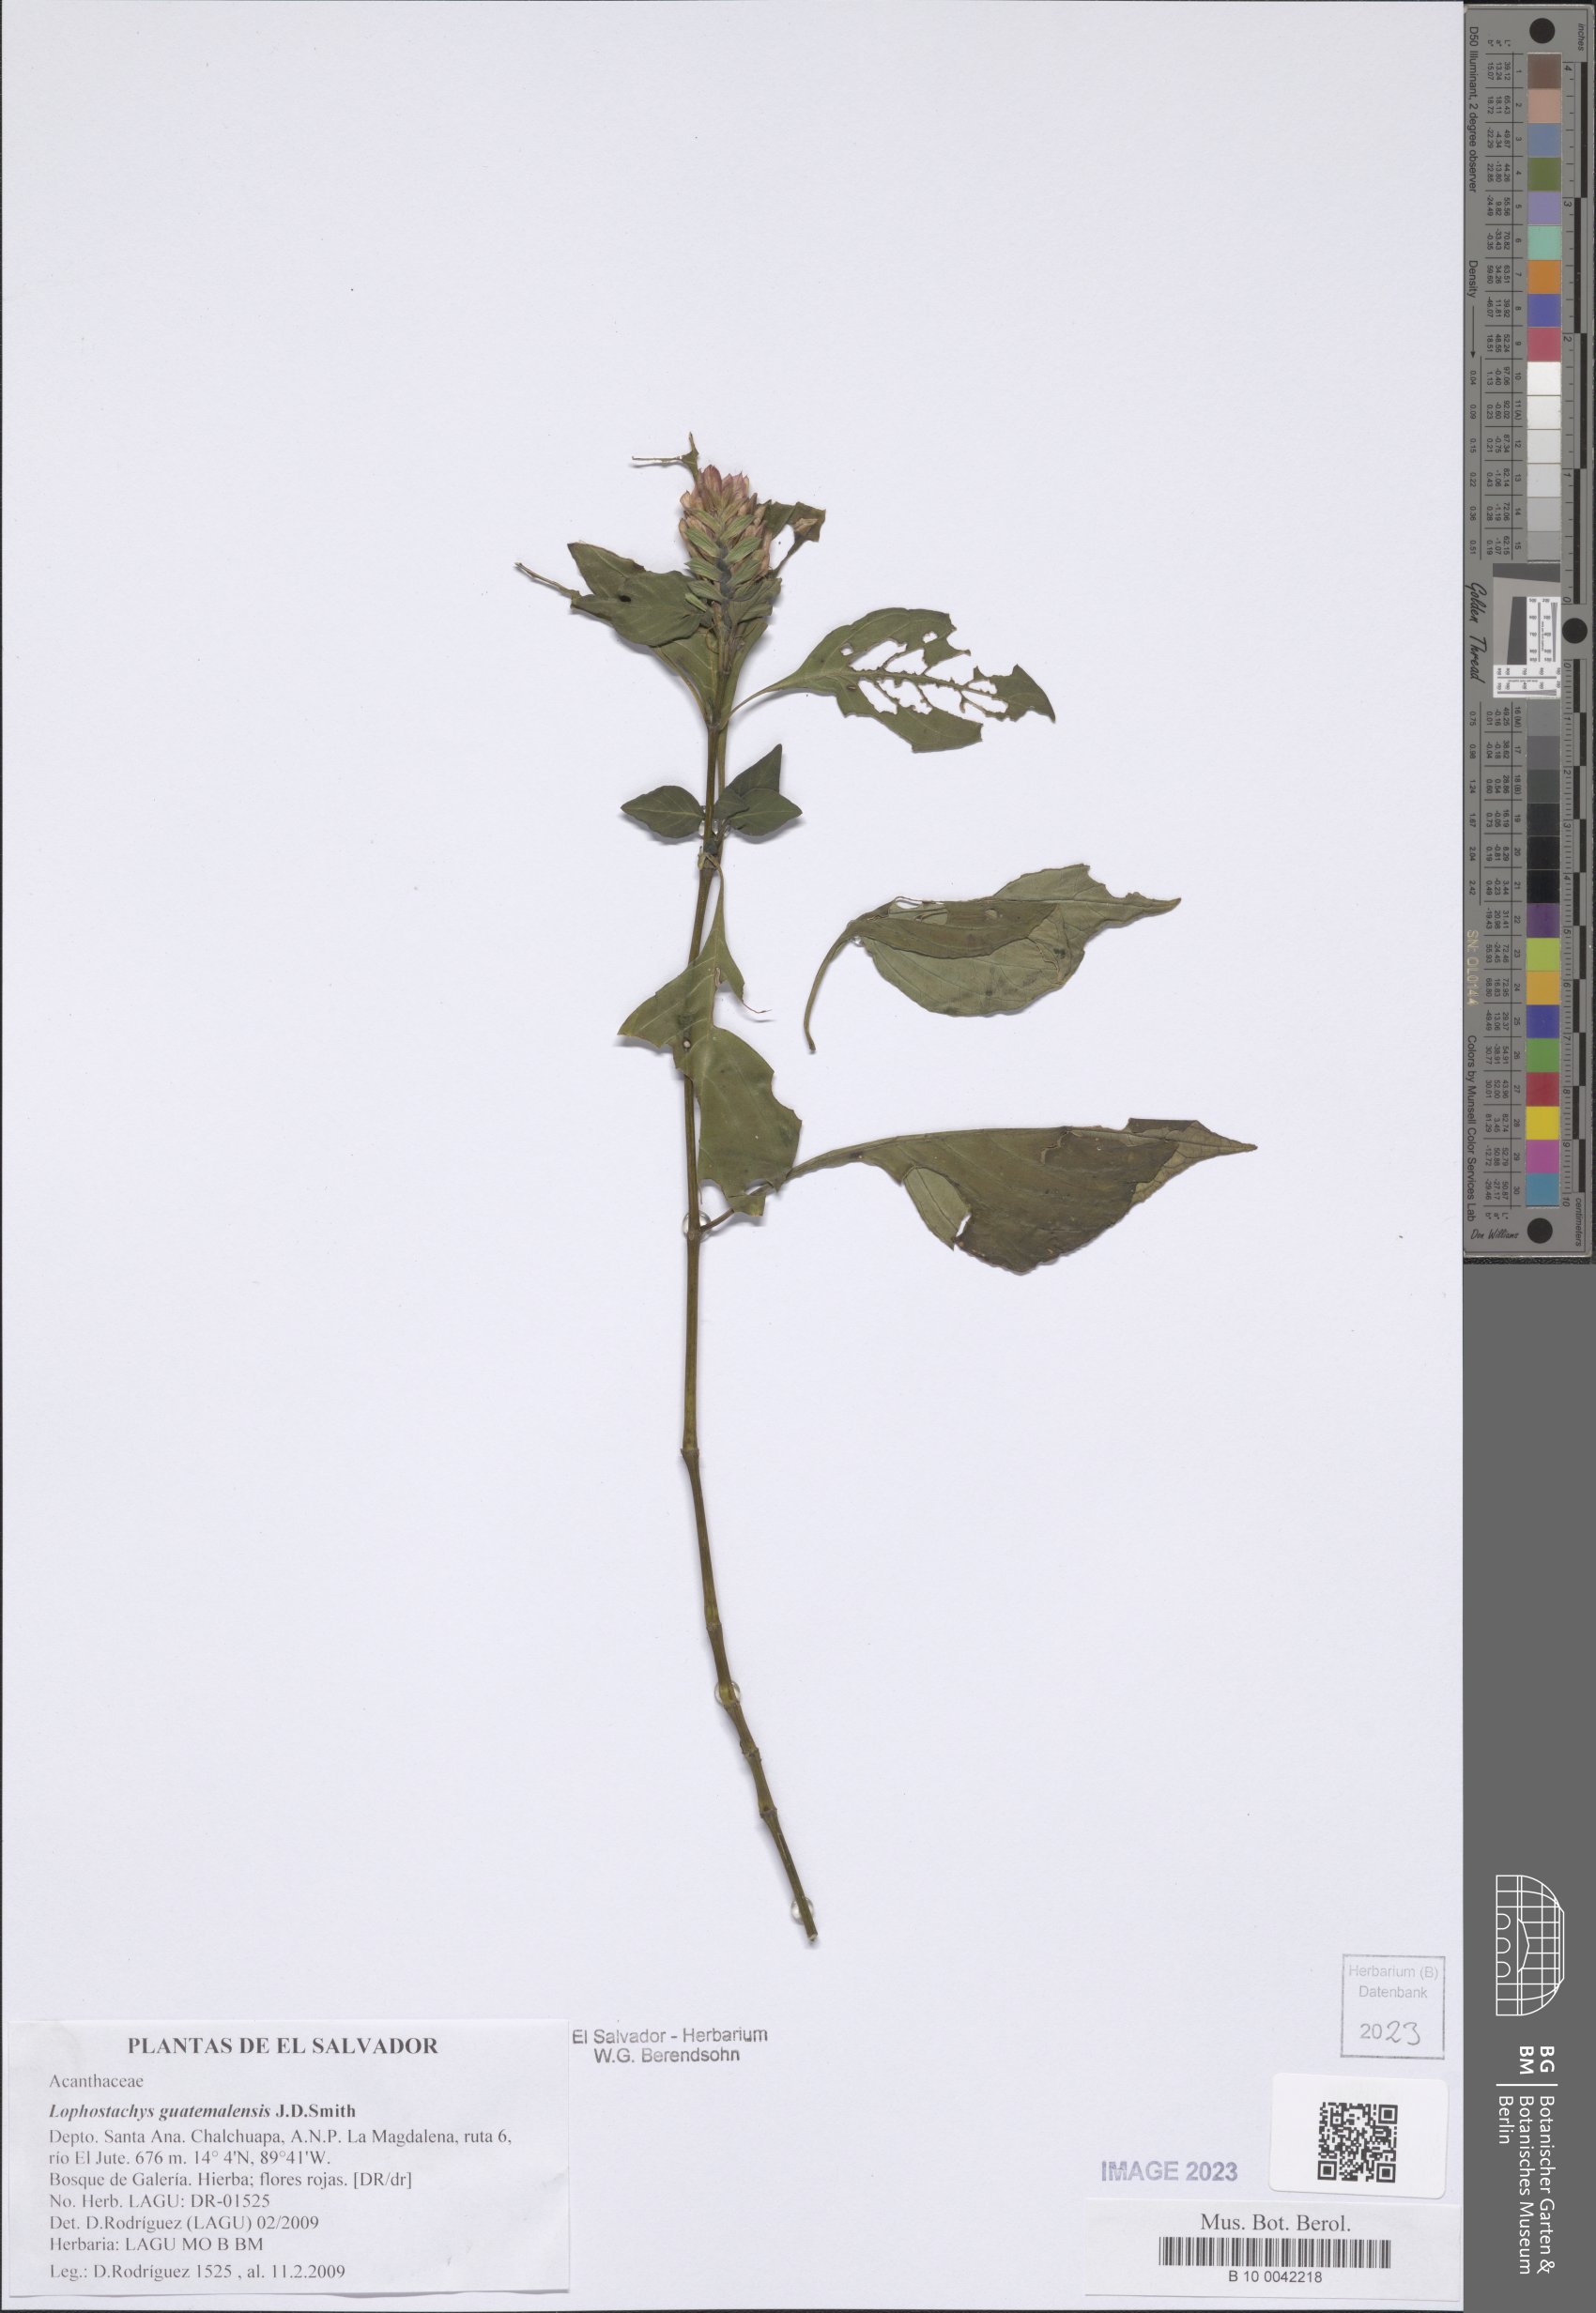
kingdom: Plantae
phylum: Tracheophyta
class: Magnoliopsida
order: Lamiales
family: Acanthaceae
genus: Lepidagathis
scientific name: Lepidagathis guatemalensis
